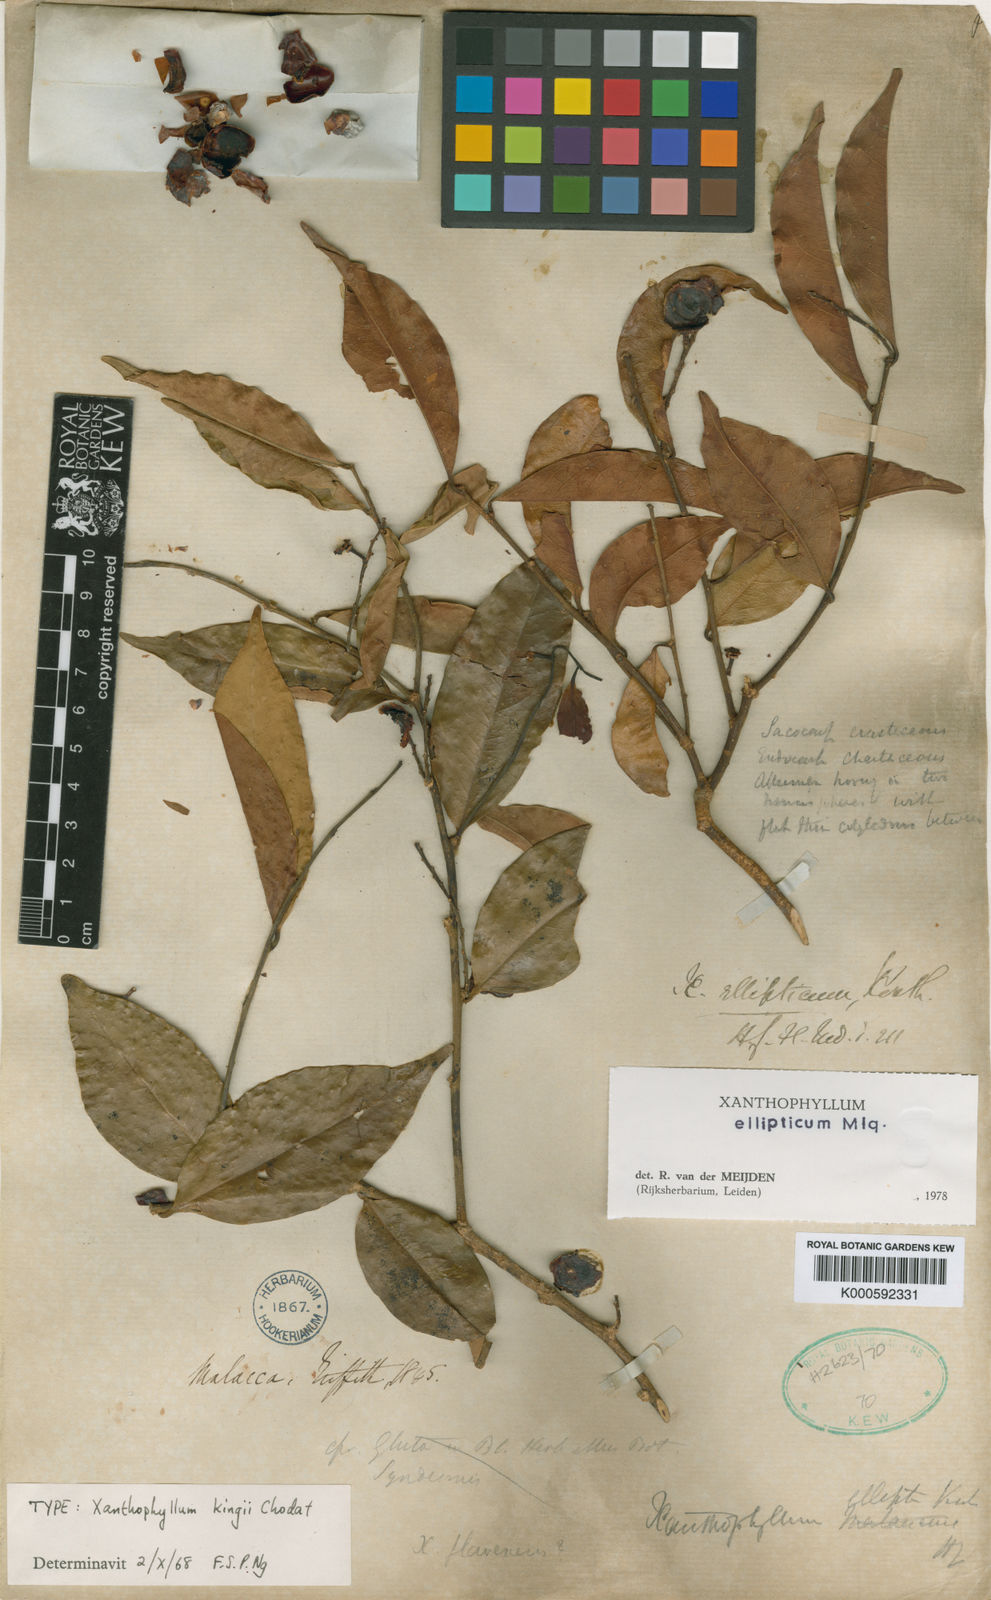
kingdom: Plantae
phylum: Tracheophyta
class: Magnoliopsida
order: Fabales
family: Polygalaceae
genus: Xanthophyllum
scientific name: Xanthophyllum virens
